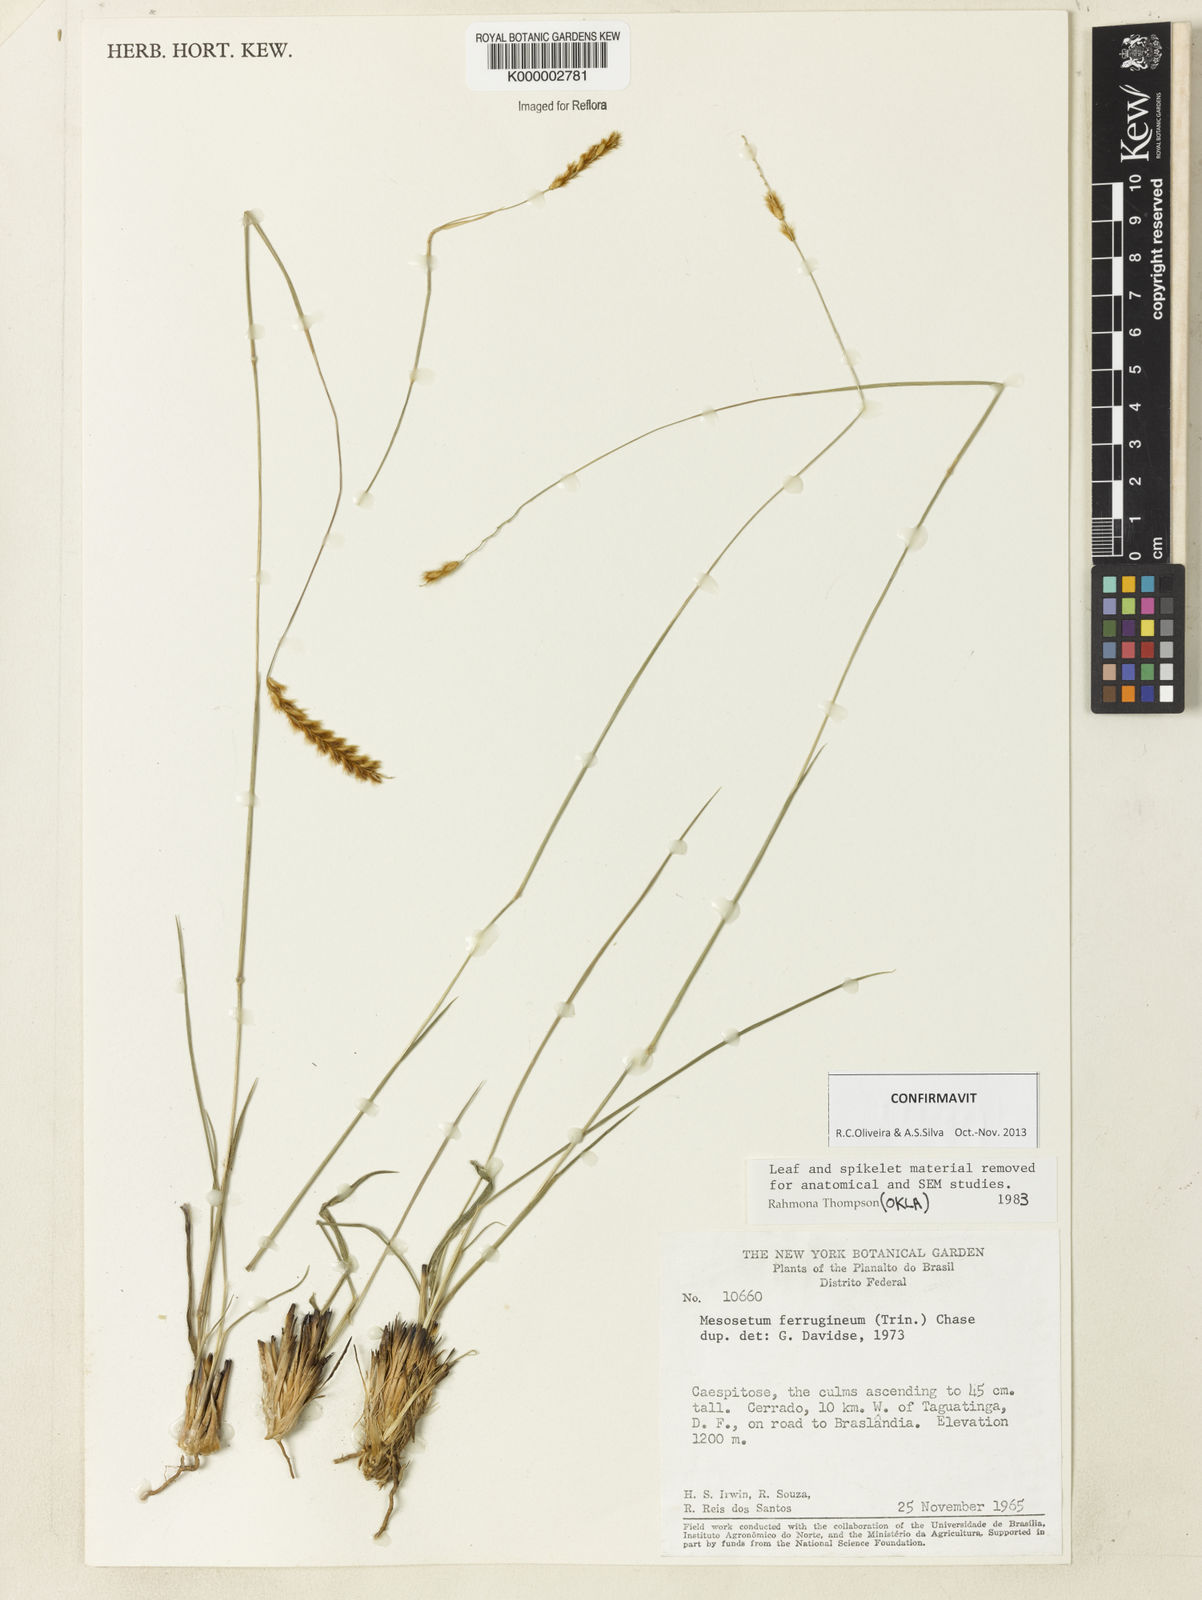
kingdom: Plantae
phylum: Tracheophyta
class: Liliopsida
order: Poales
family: Poaceae
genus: Mesosetum
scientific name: Mesosetum ferrugineum
